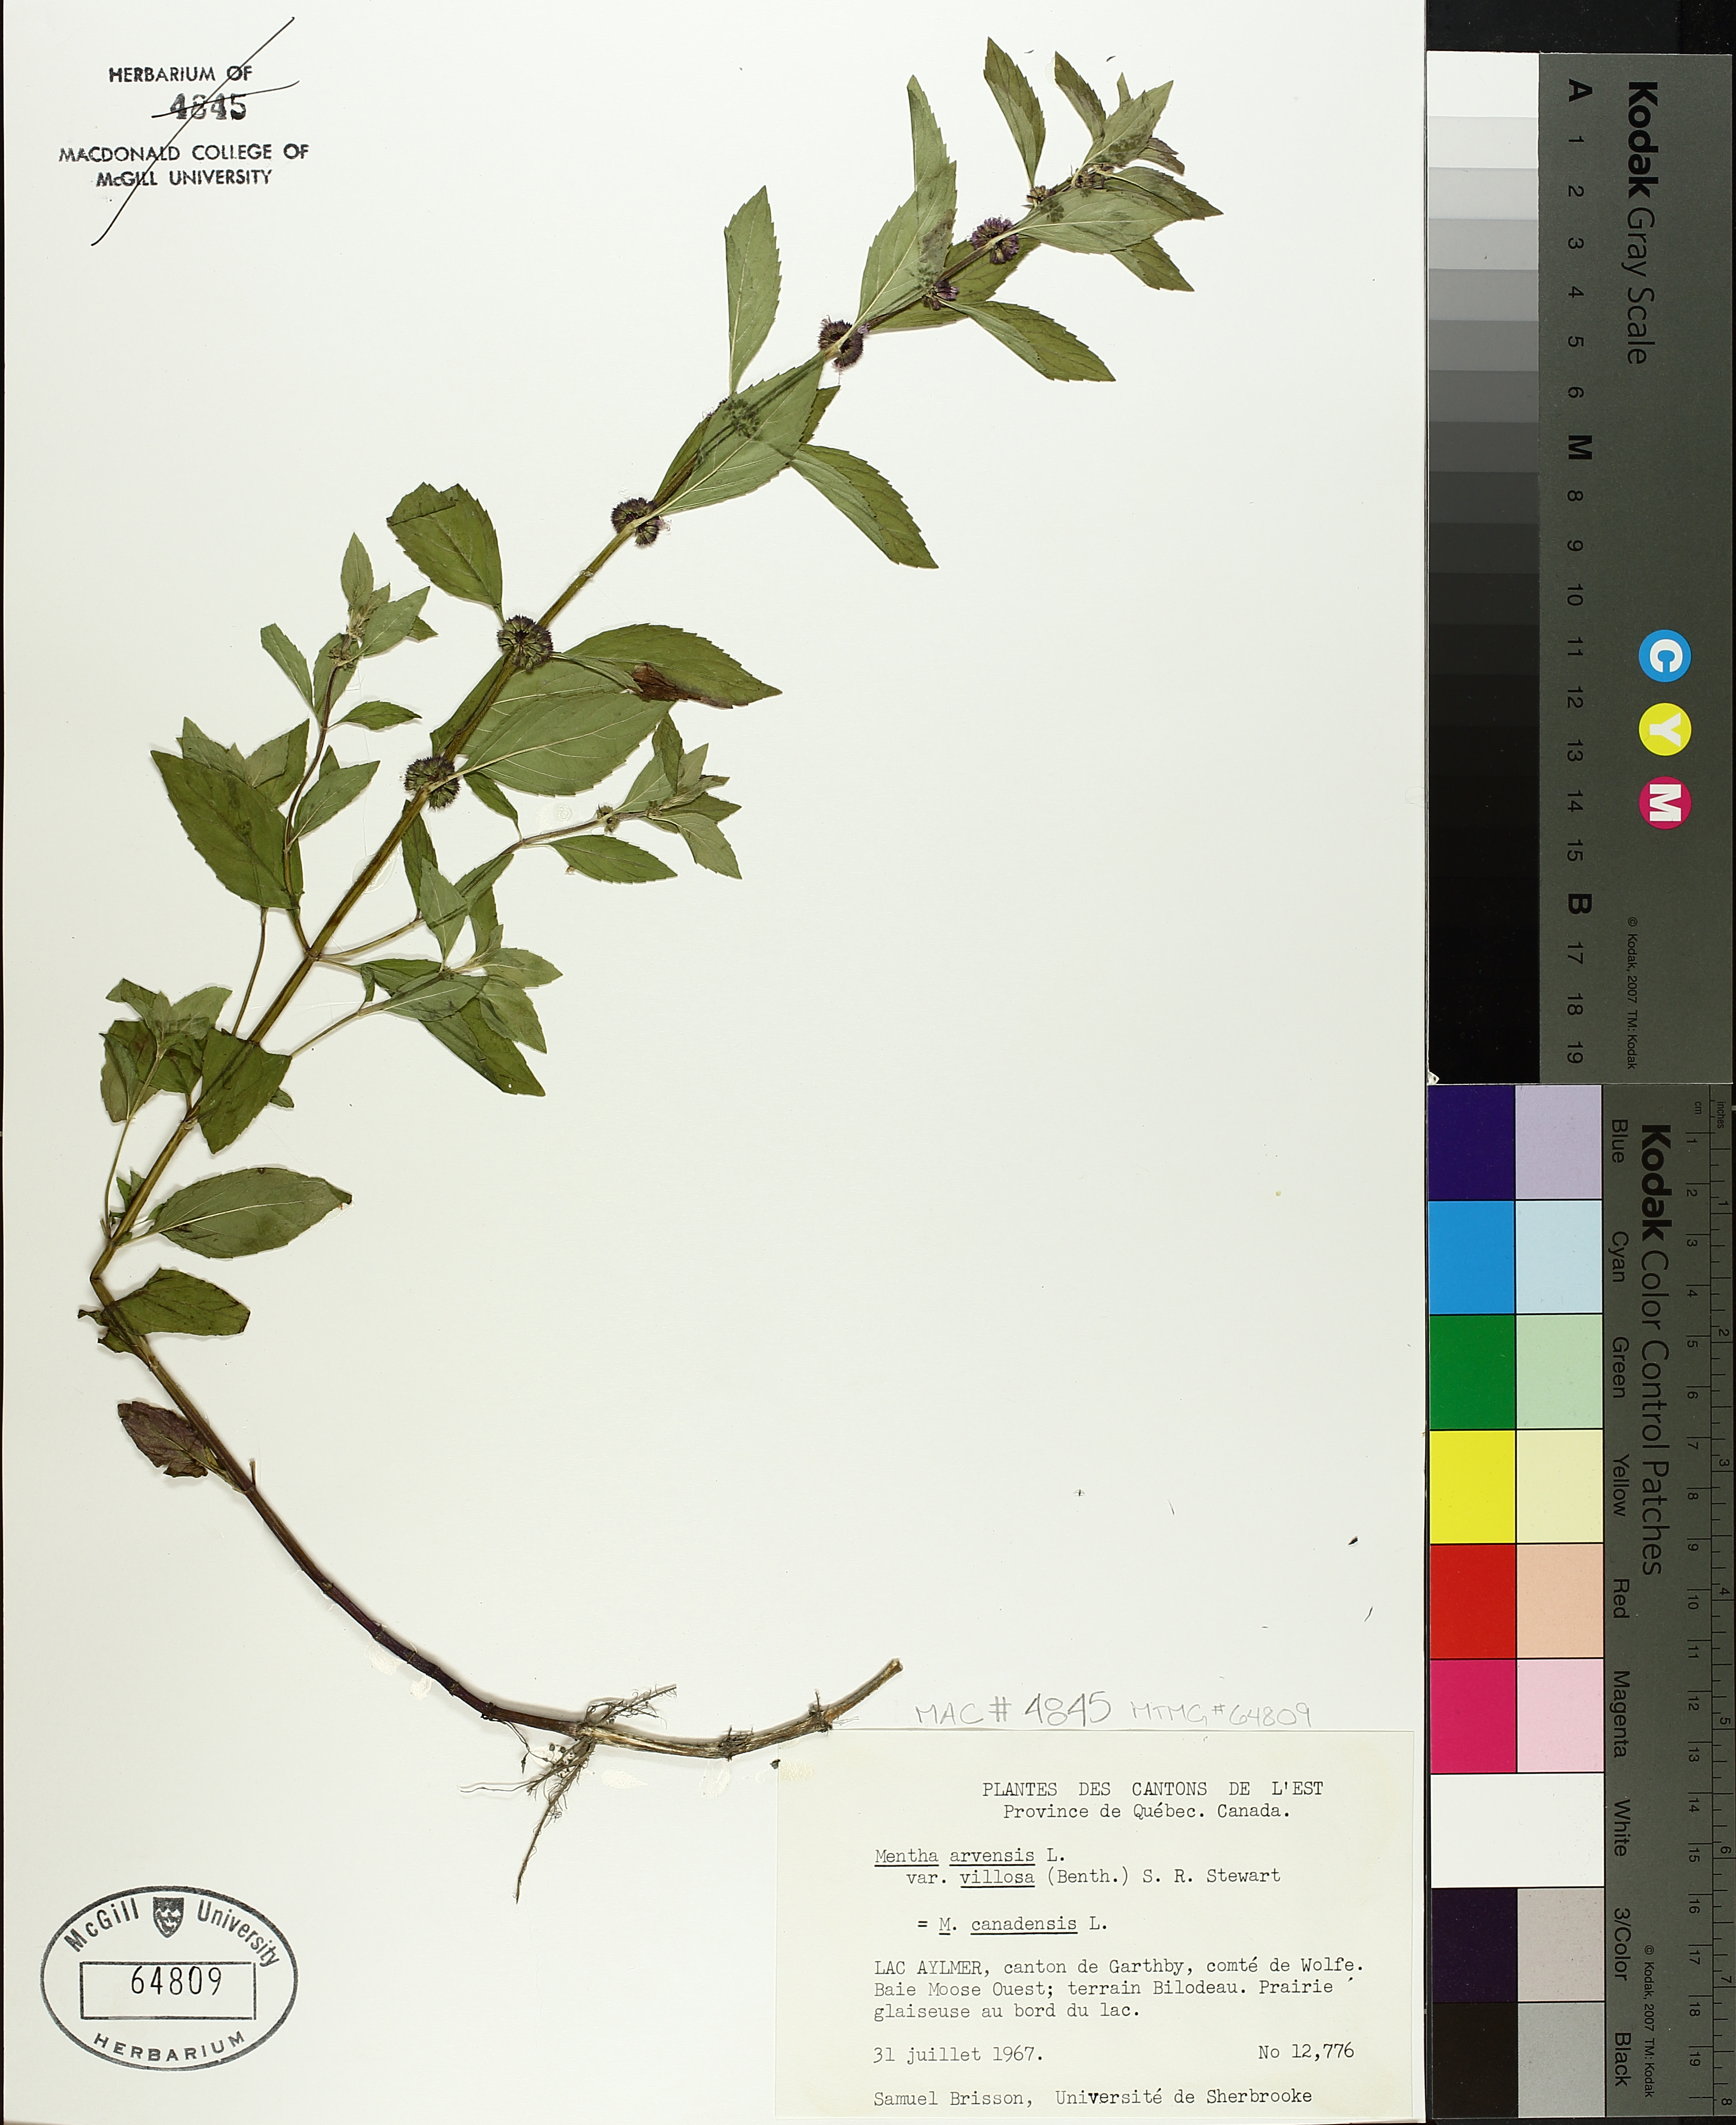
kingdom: Plantae
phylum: Tracheophyta
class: Magnoliopsida
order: Lamiales
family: Lamiaceae
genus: Mentha
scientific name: Mentha arvensis
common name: Corn mint
